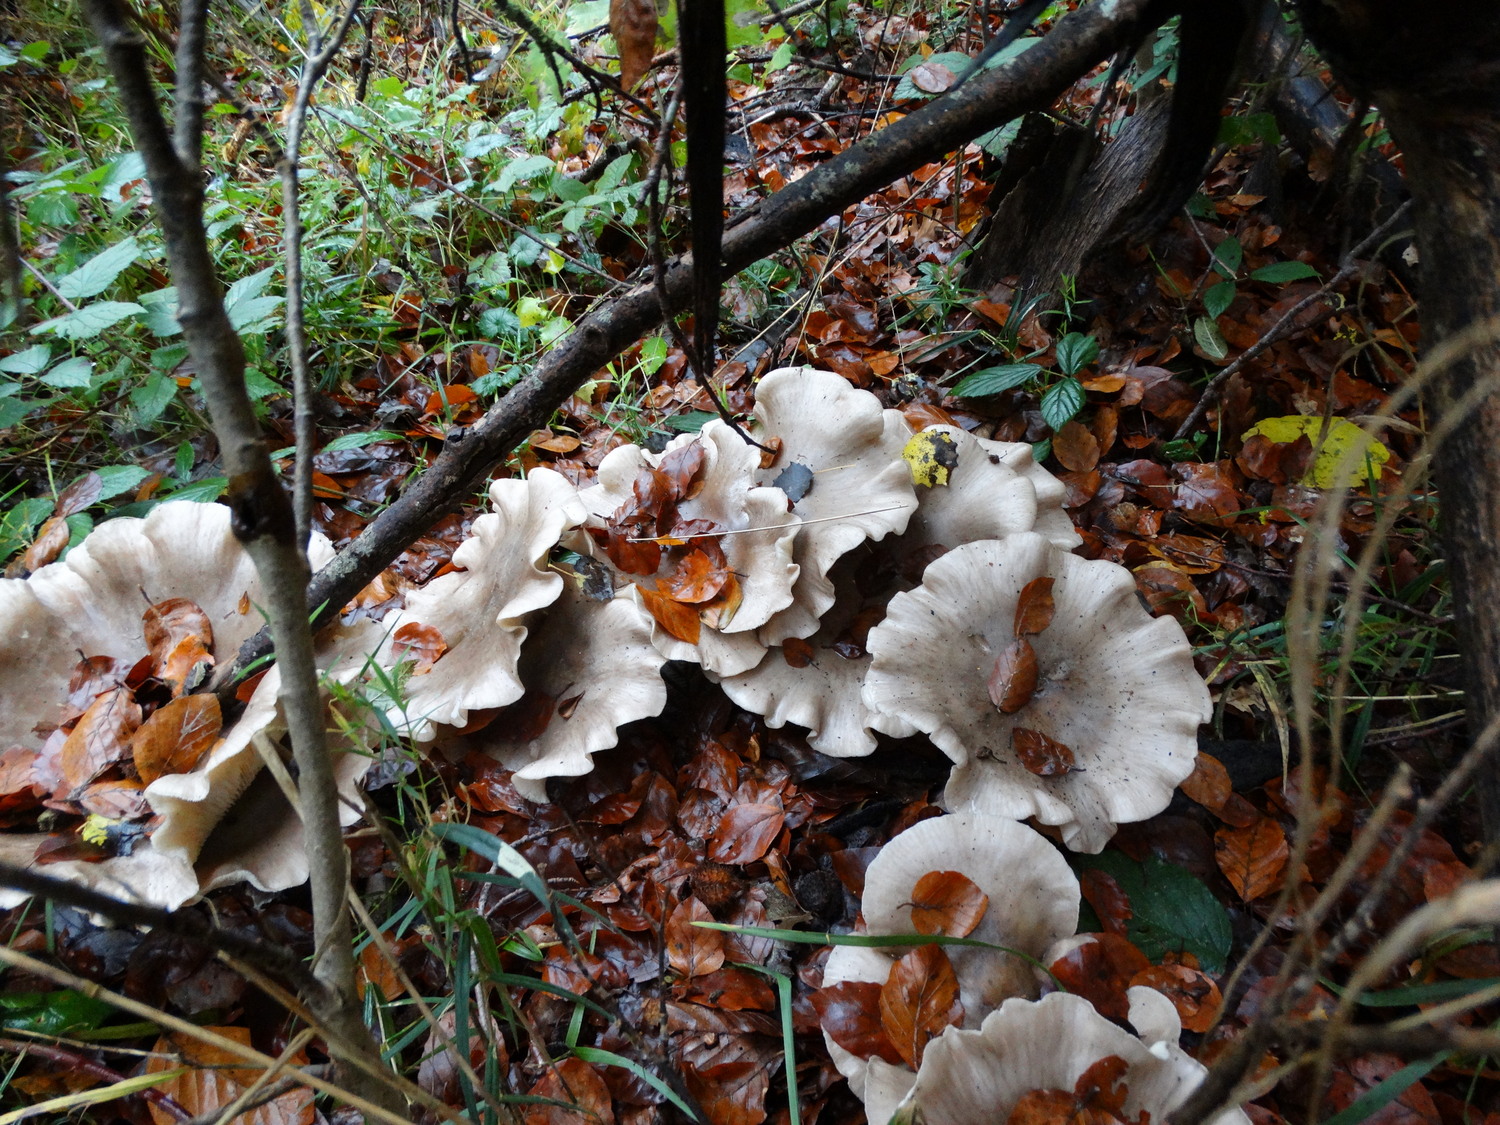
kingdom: Fungi
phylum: Basidiomycota
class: Agaricomycetes
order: Agaricales
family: Tricholomataceae
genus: Clitocybe
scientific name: Clitocybe nebularis
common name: tåge-tragthat
